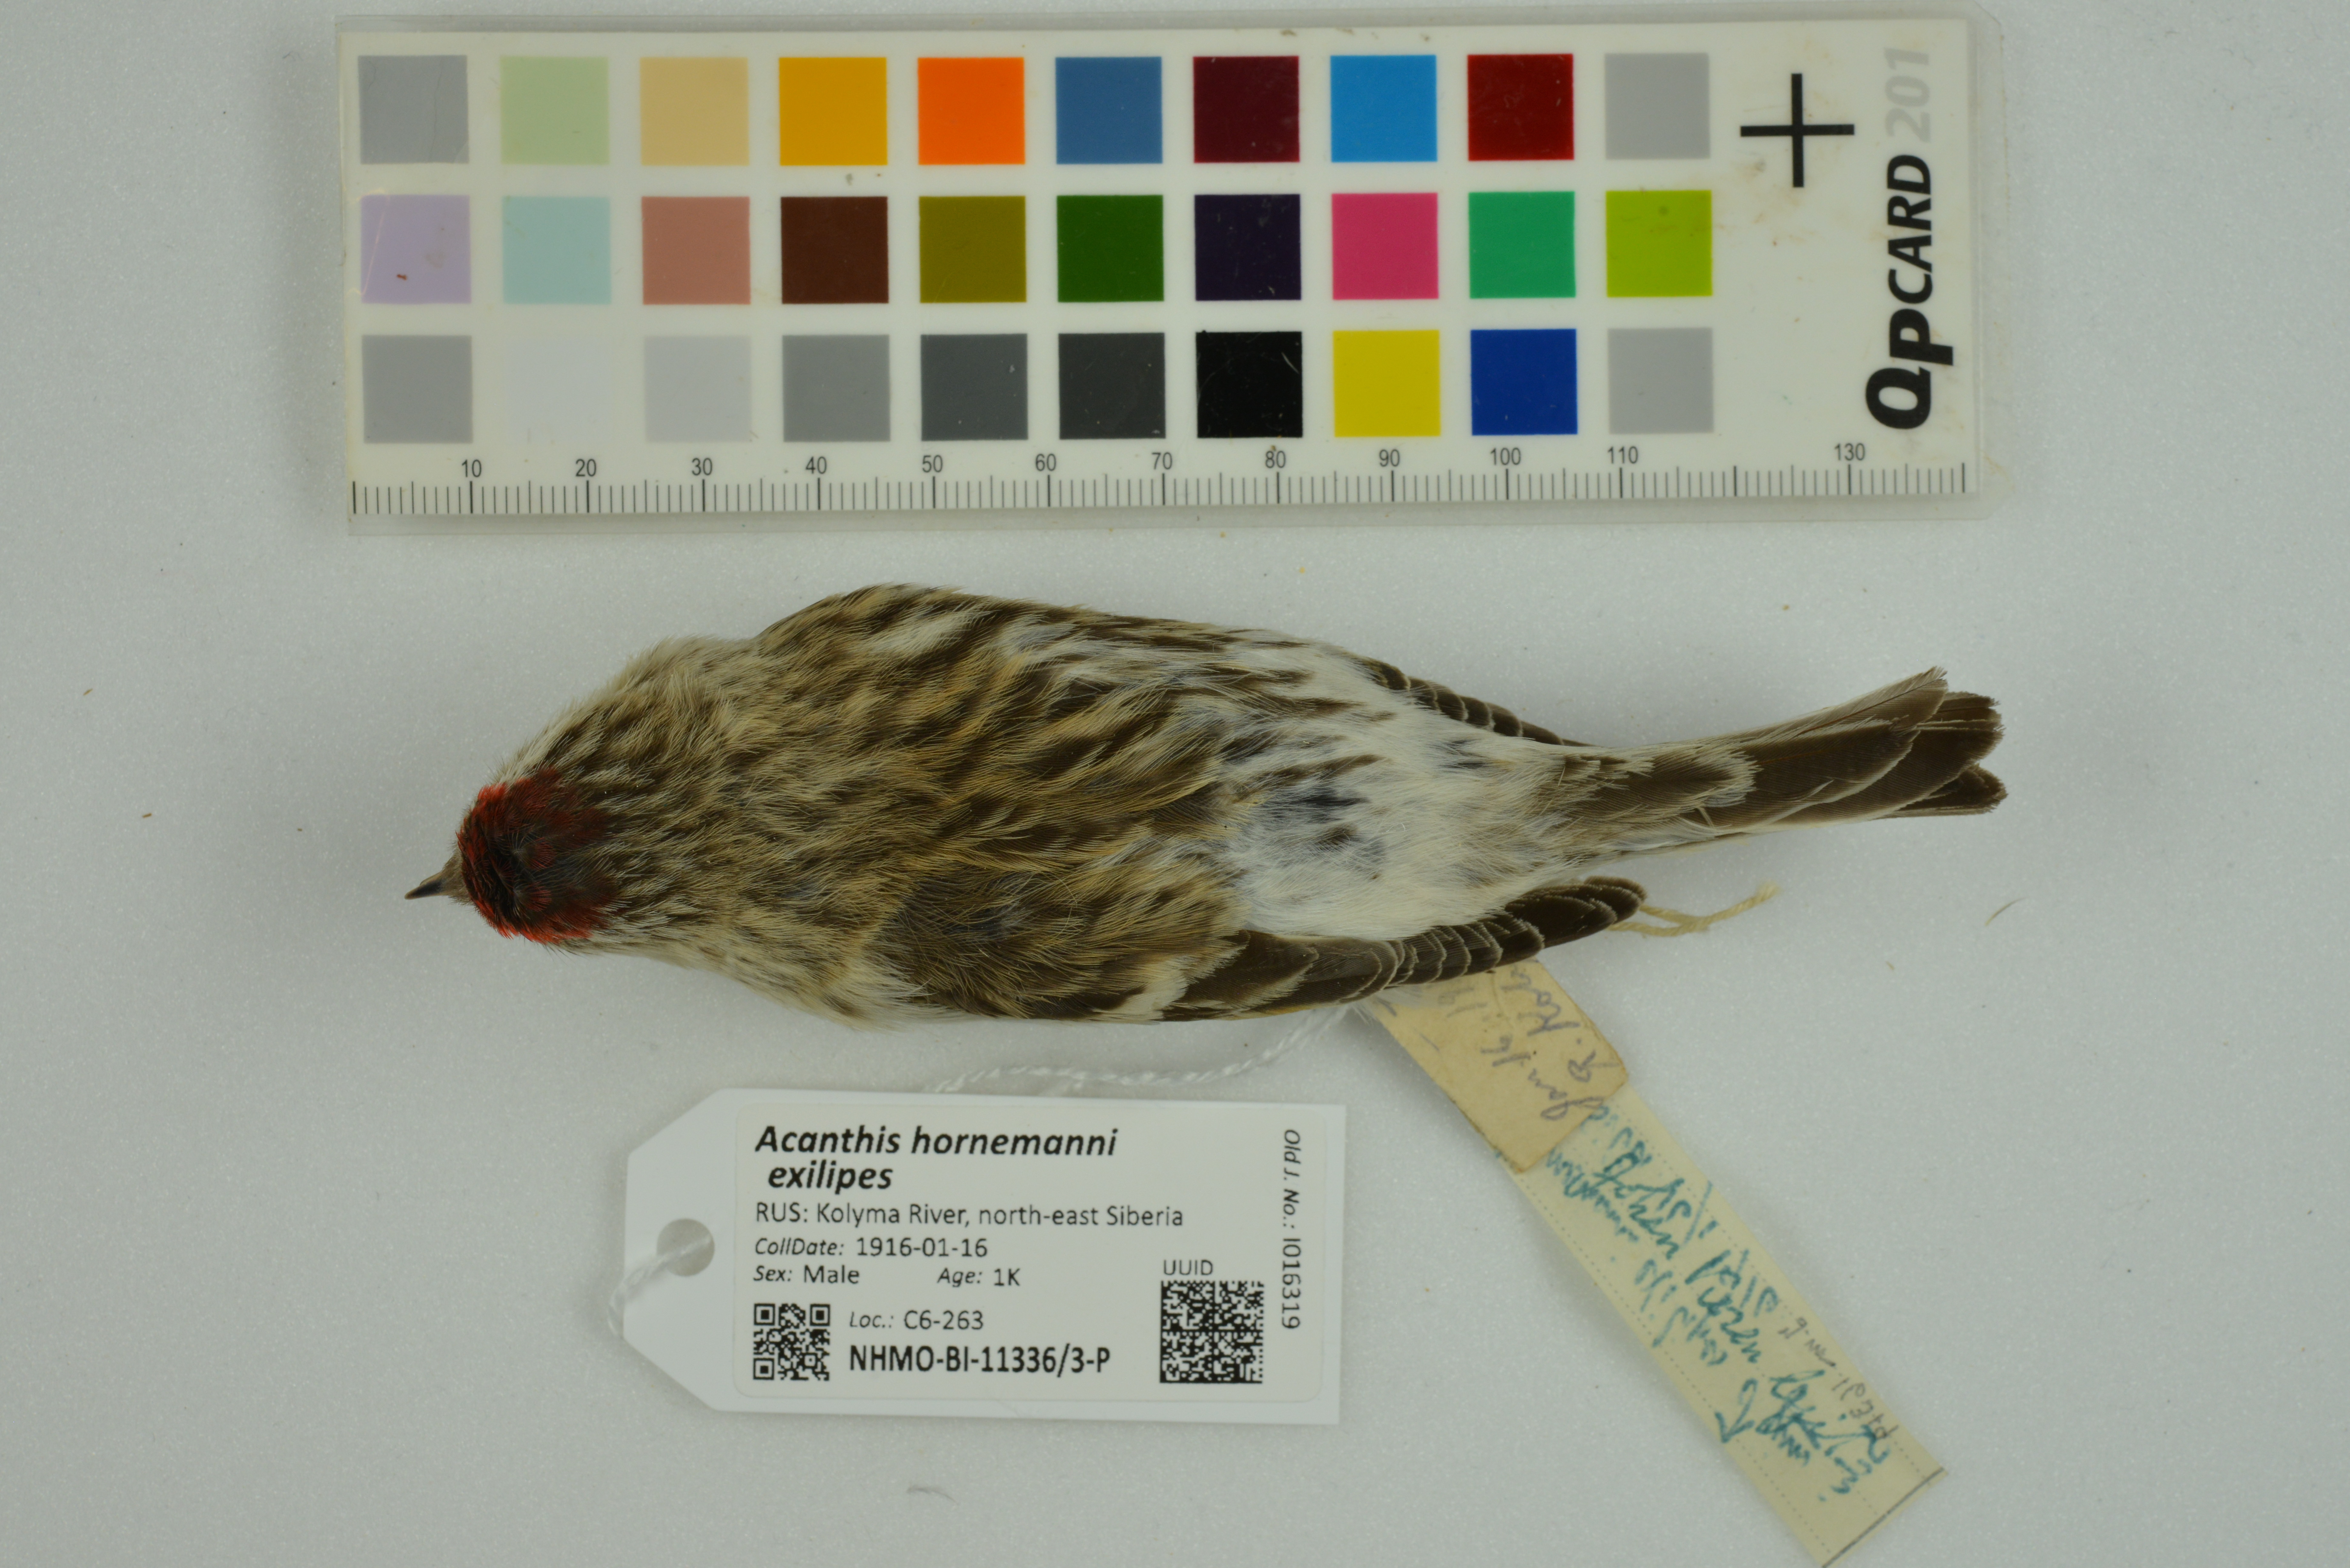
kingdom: Animalia
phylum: Chordata
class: Aves
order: Passeriformes
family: Fringillidae
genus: Acanthis
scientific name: Acanthis hornemanni
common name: Arctic redpoll
